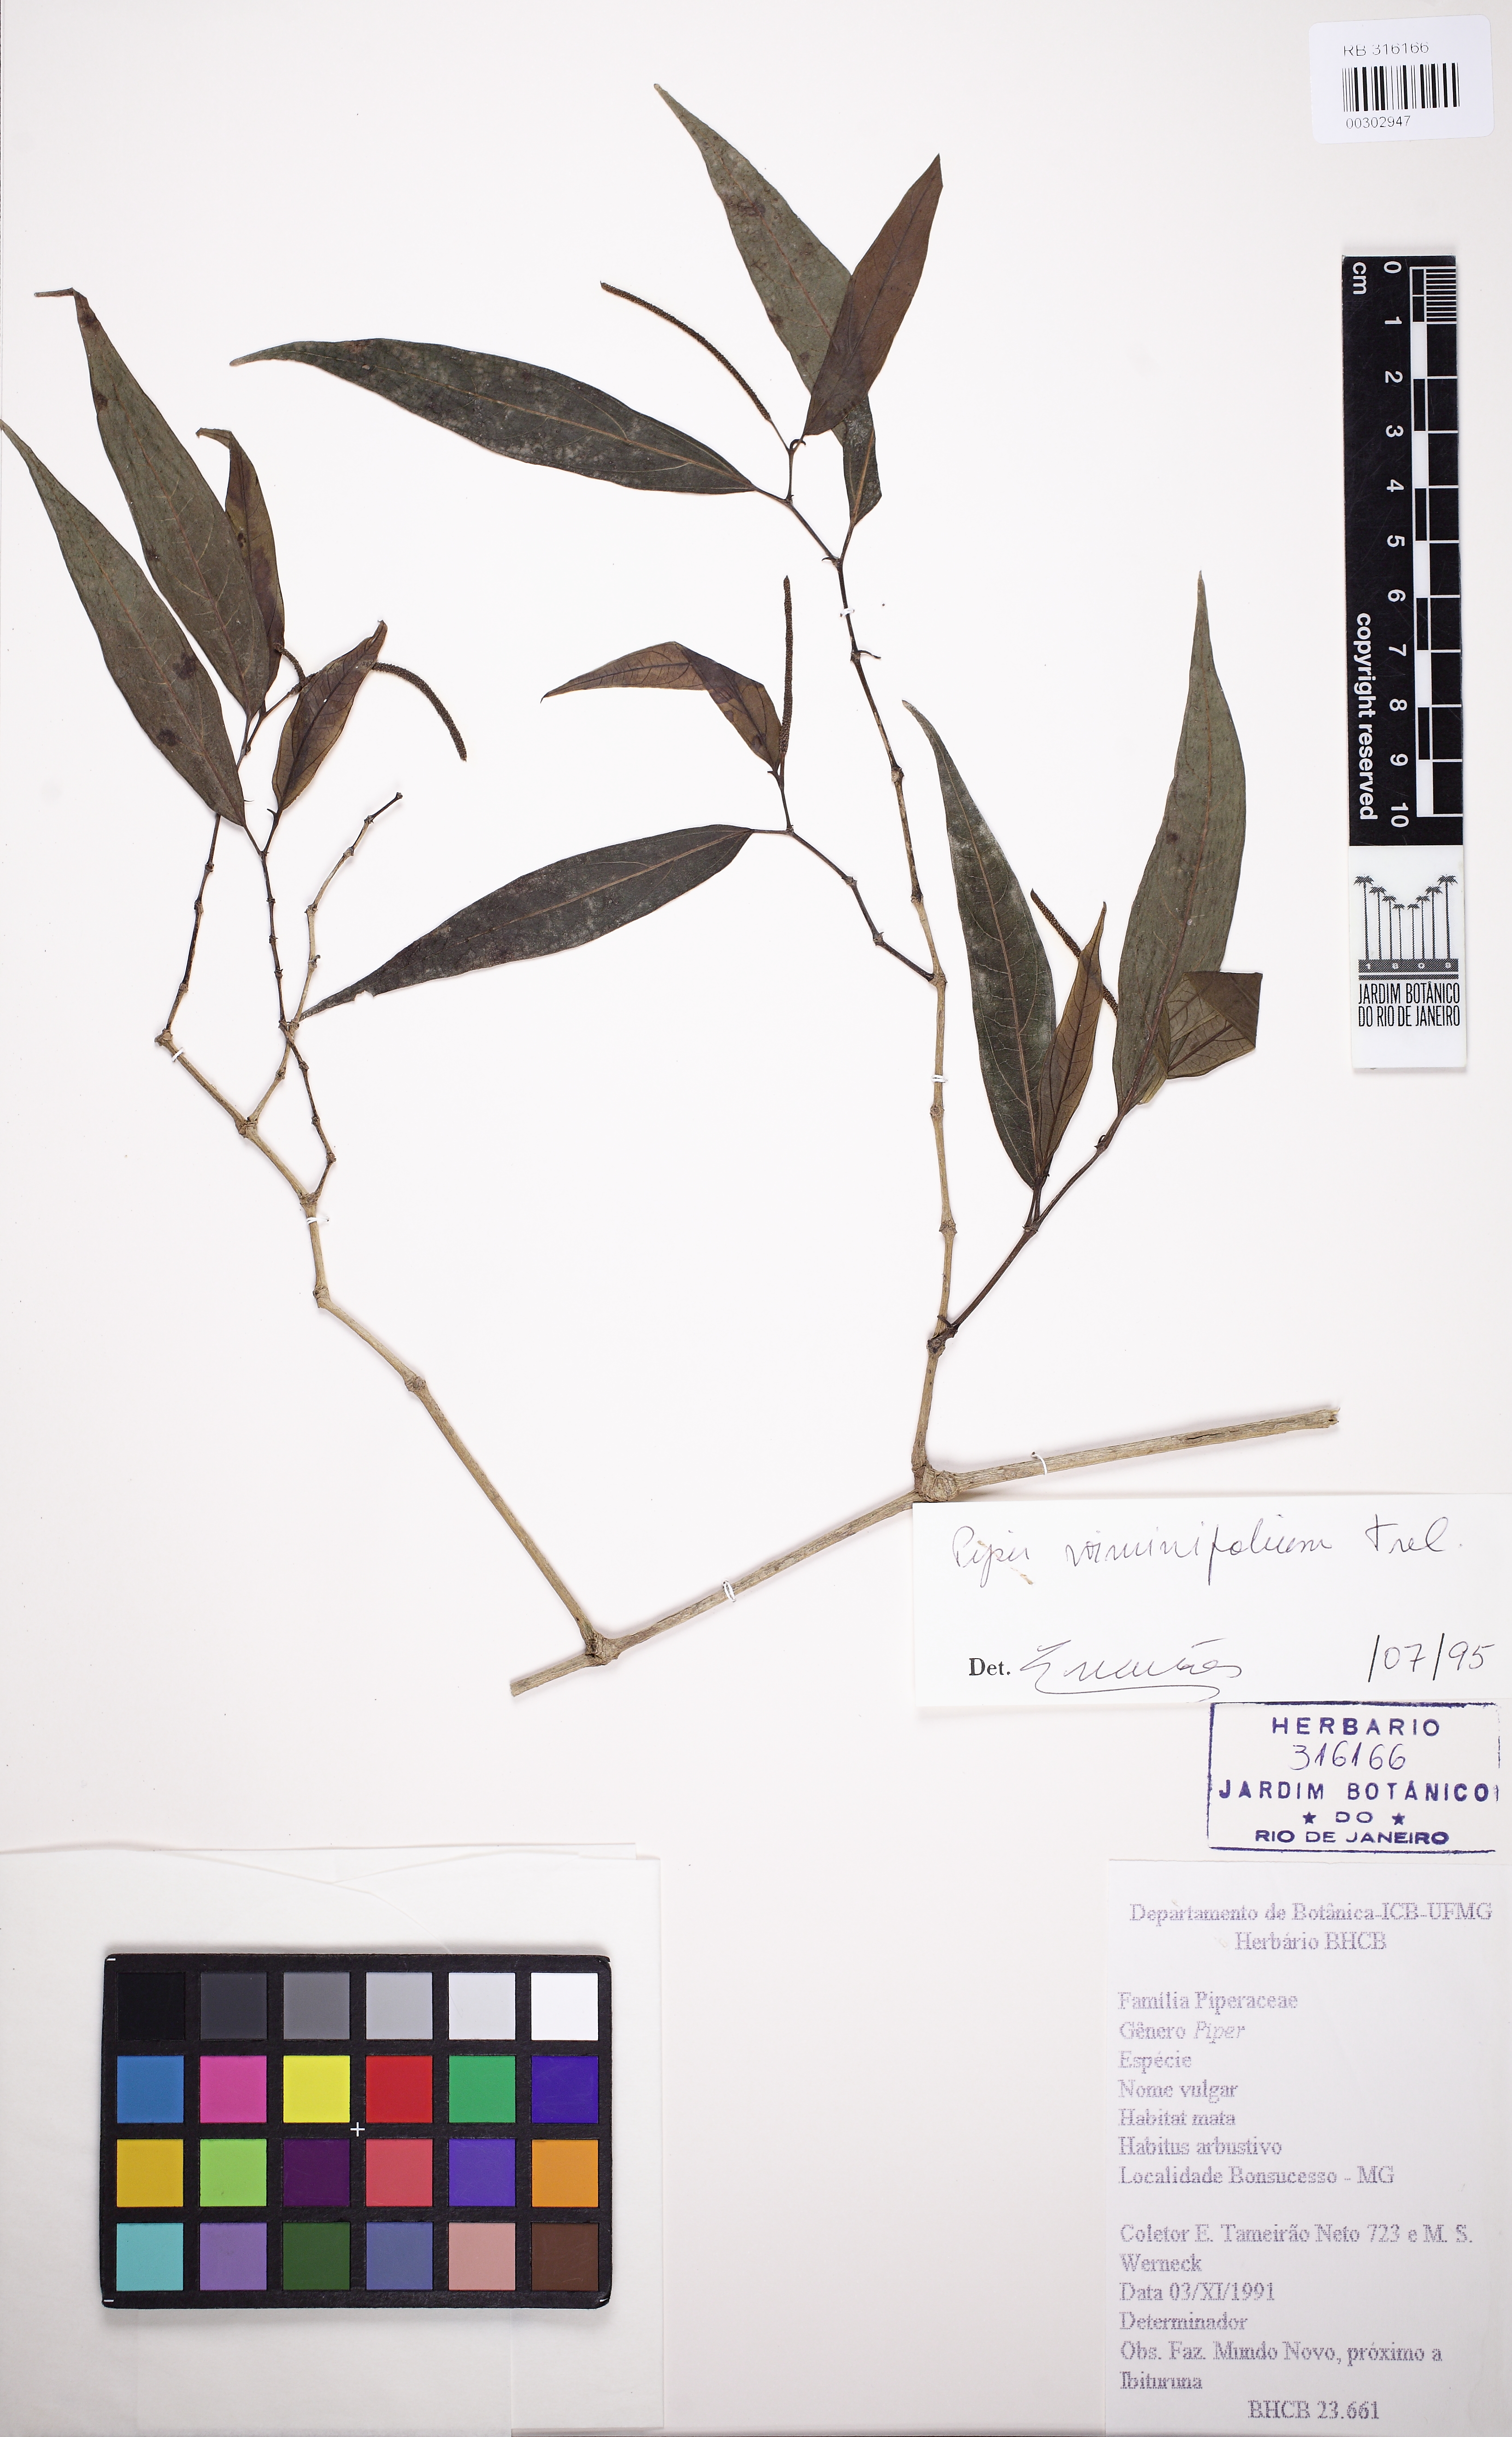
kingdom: Plantae
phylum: Tracheophyta
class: Magnoliopsida
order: Piperales
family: Piperaceae
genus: Piper
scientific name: Piper viminifolium
